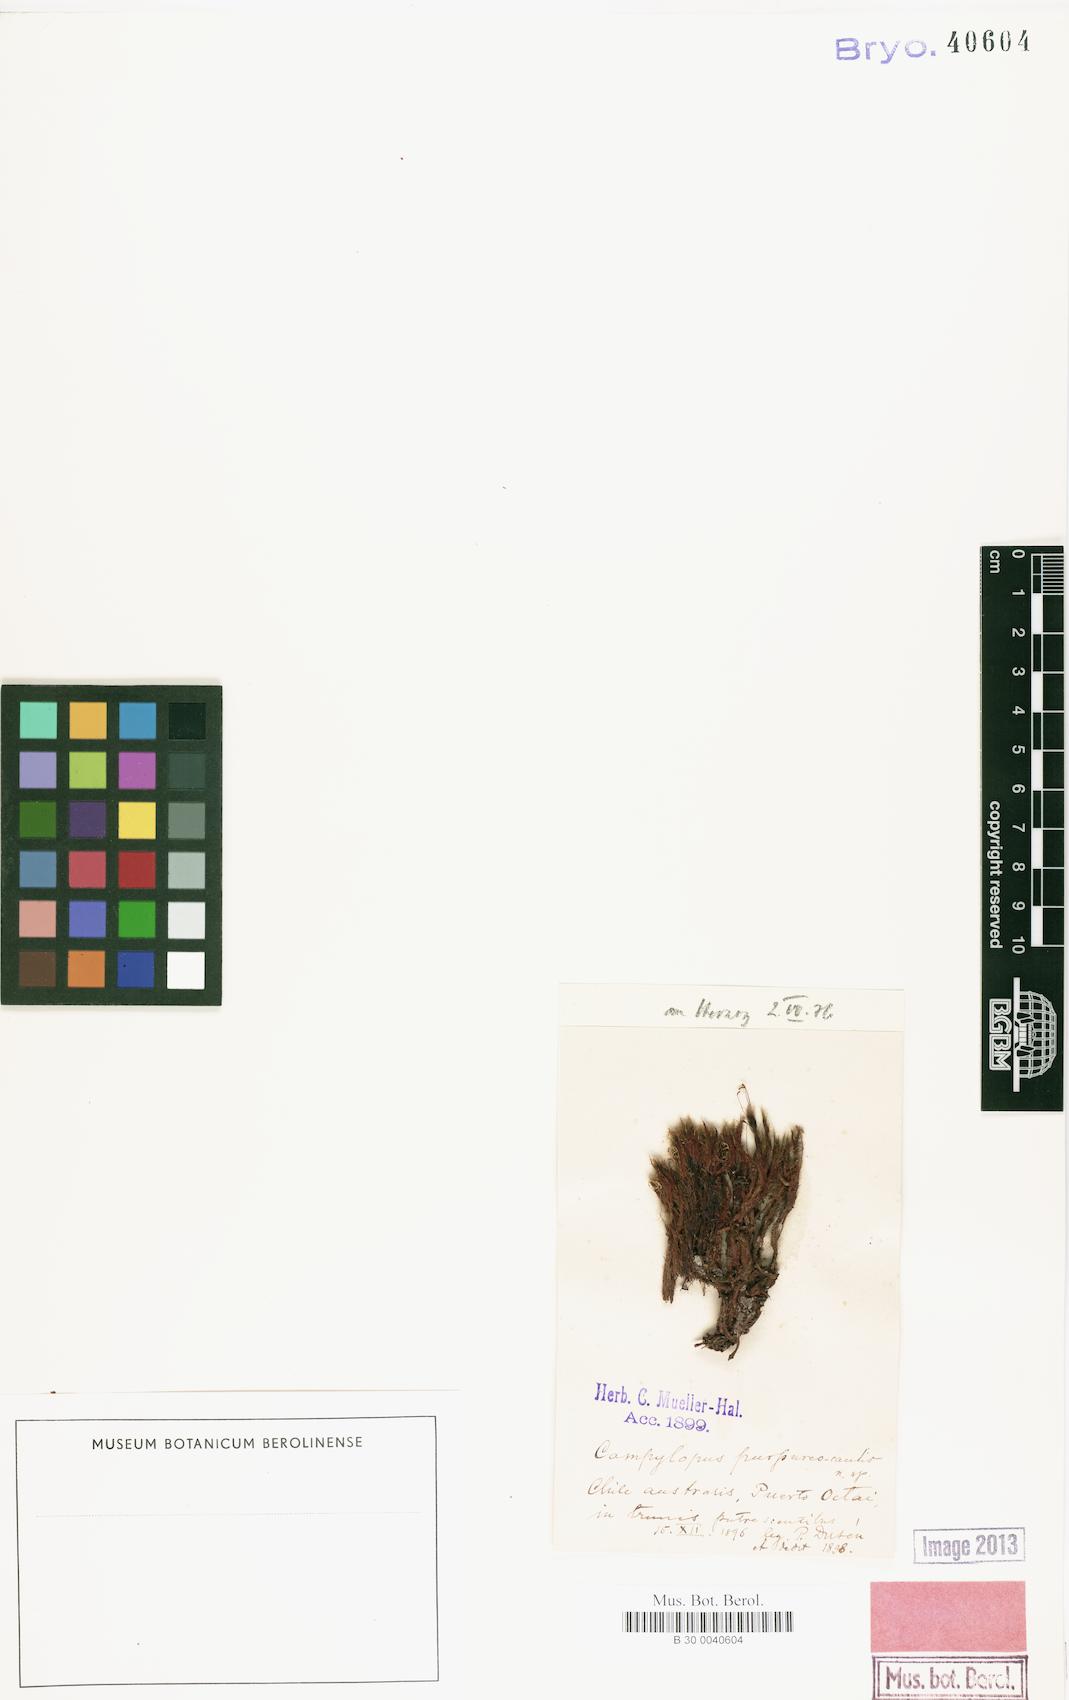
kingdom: Plantae
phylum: Bryophyta
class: Bryopsida
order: Dicranales
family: Leucobryaceae
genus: Campylopus
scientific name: Campylopus purpureocaulis
